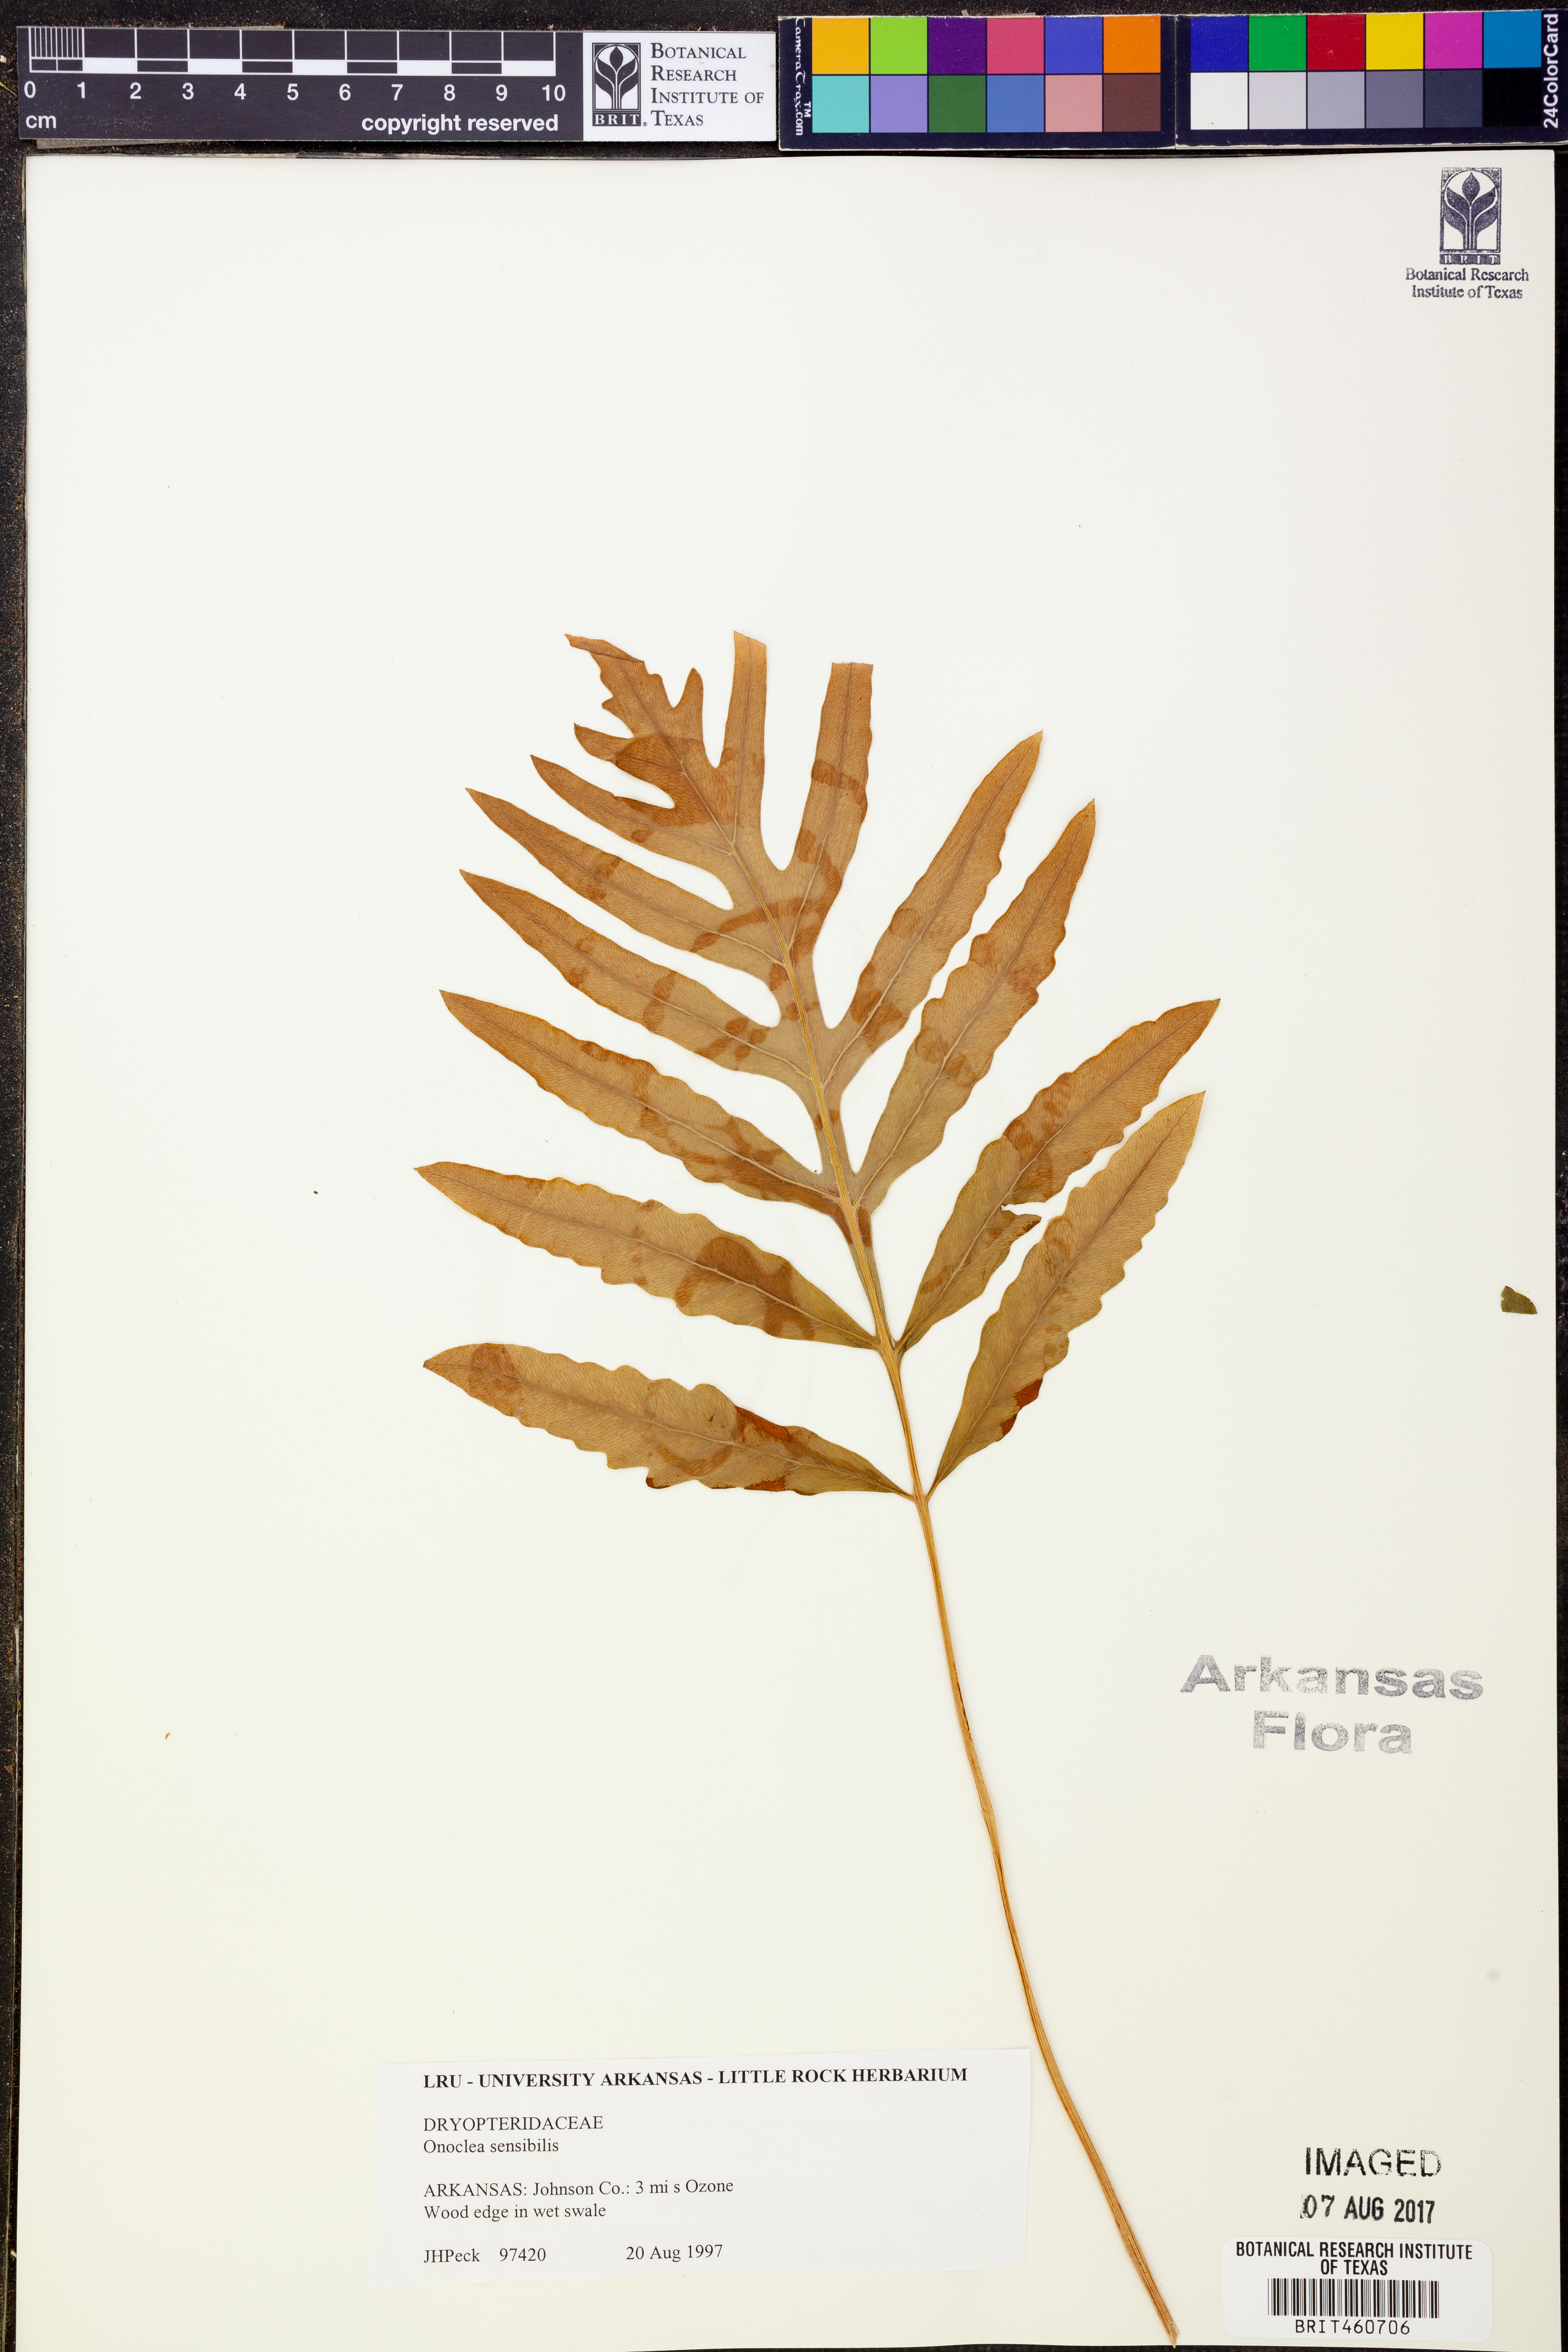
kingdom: Plantae
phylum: Tracheophyta
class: Polypodiopsida
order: Polypodiales
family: Onocleaceae
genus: Onoclea
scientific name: Onoclea sensibilis
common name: Sensitive fern
